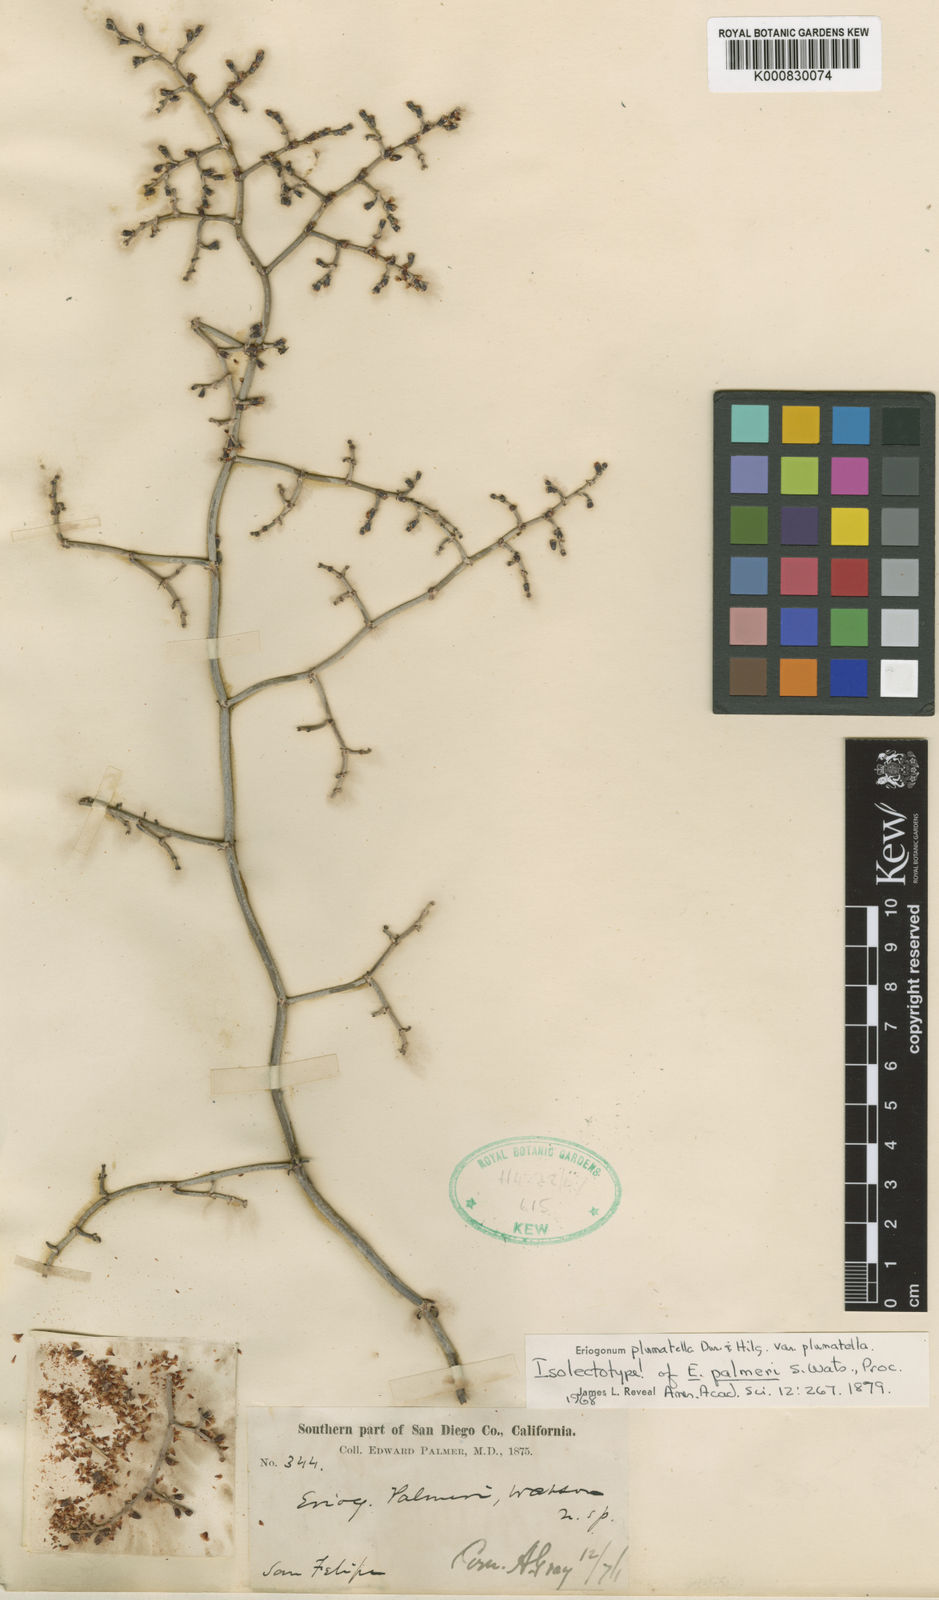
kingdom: Plantae
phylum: Tracheophyta
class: Magnoliopsida
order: Caryophyllales
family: Polygonaceae
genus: Eriogonum
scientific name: Eriogonum plumatella
